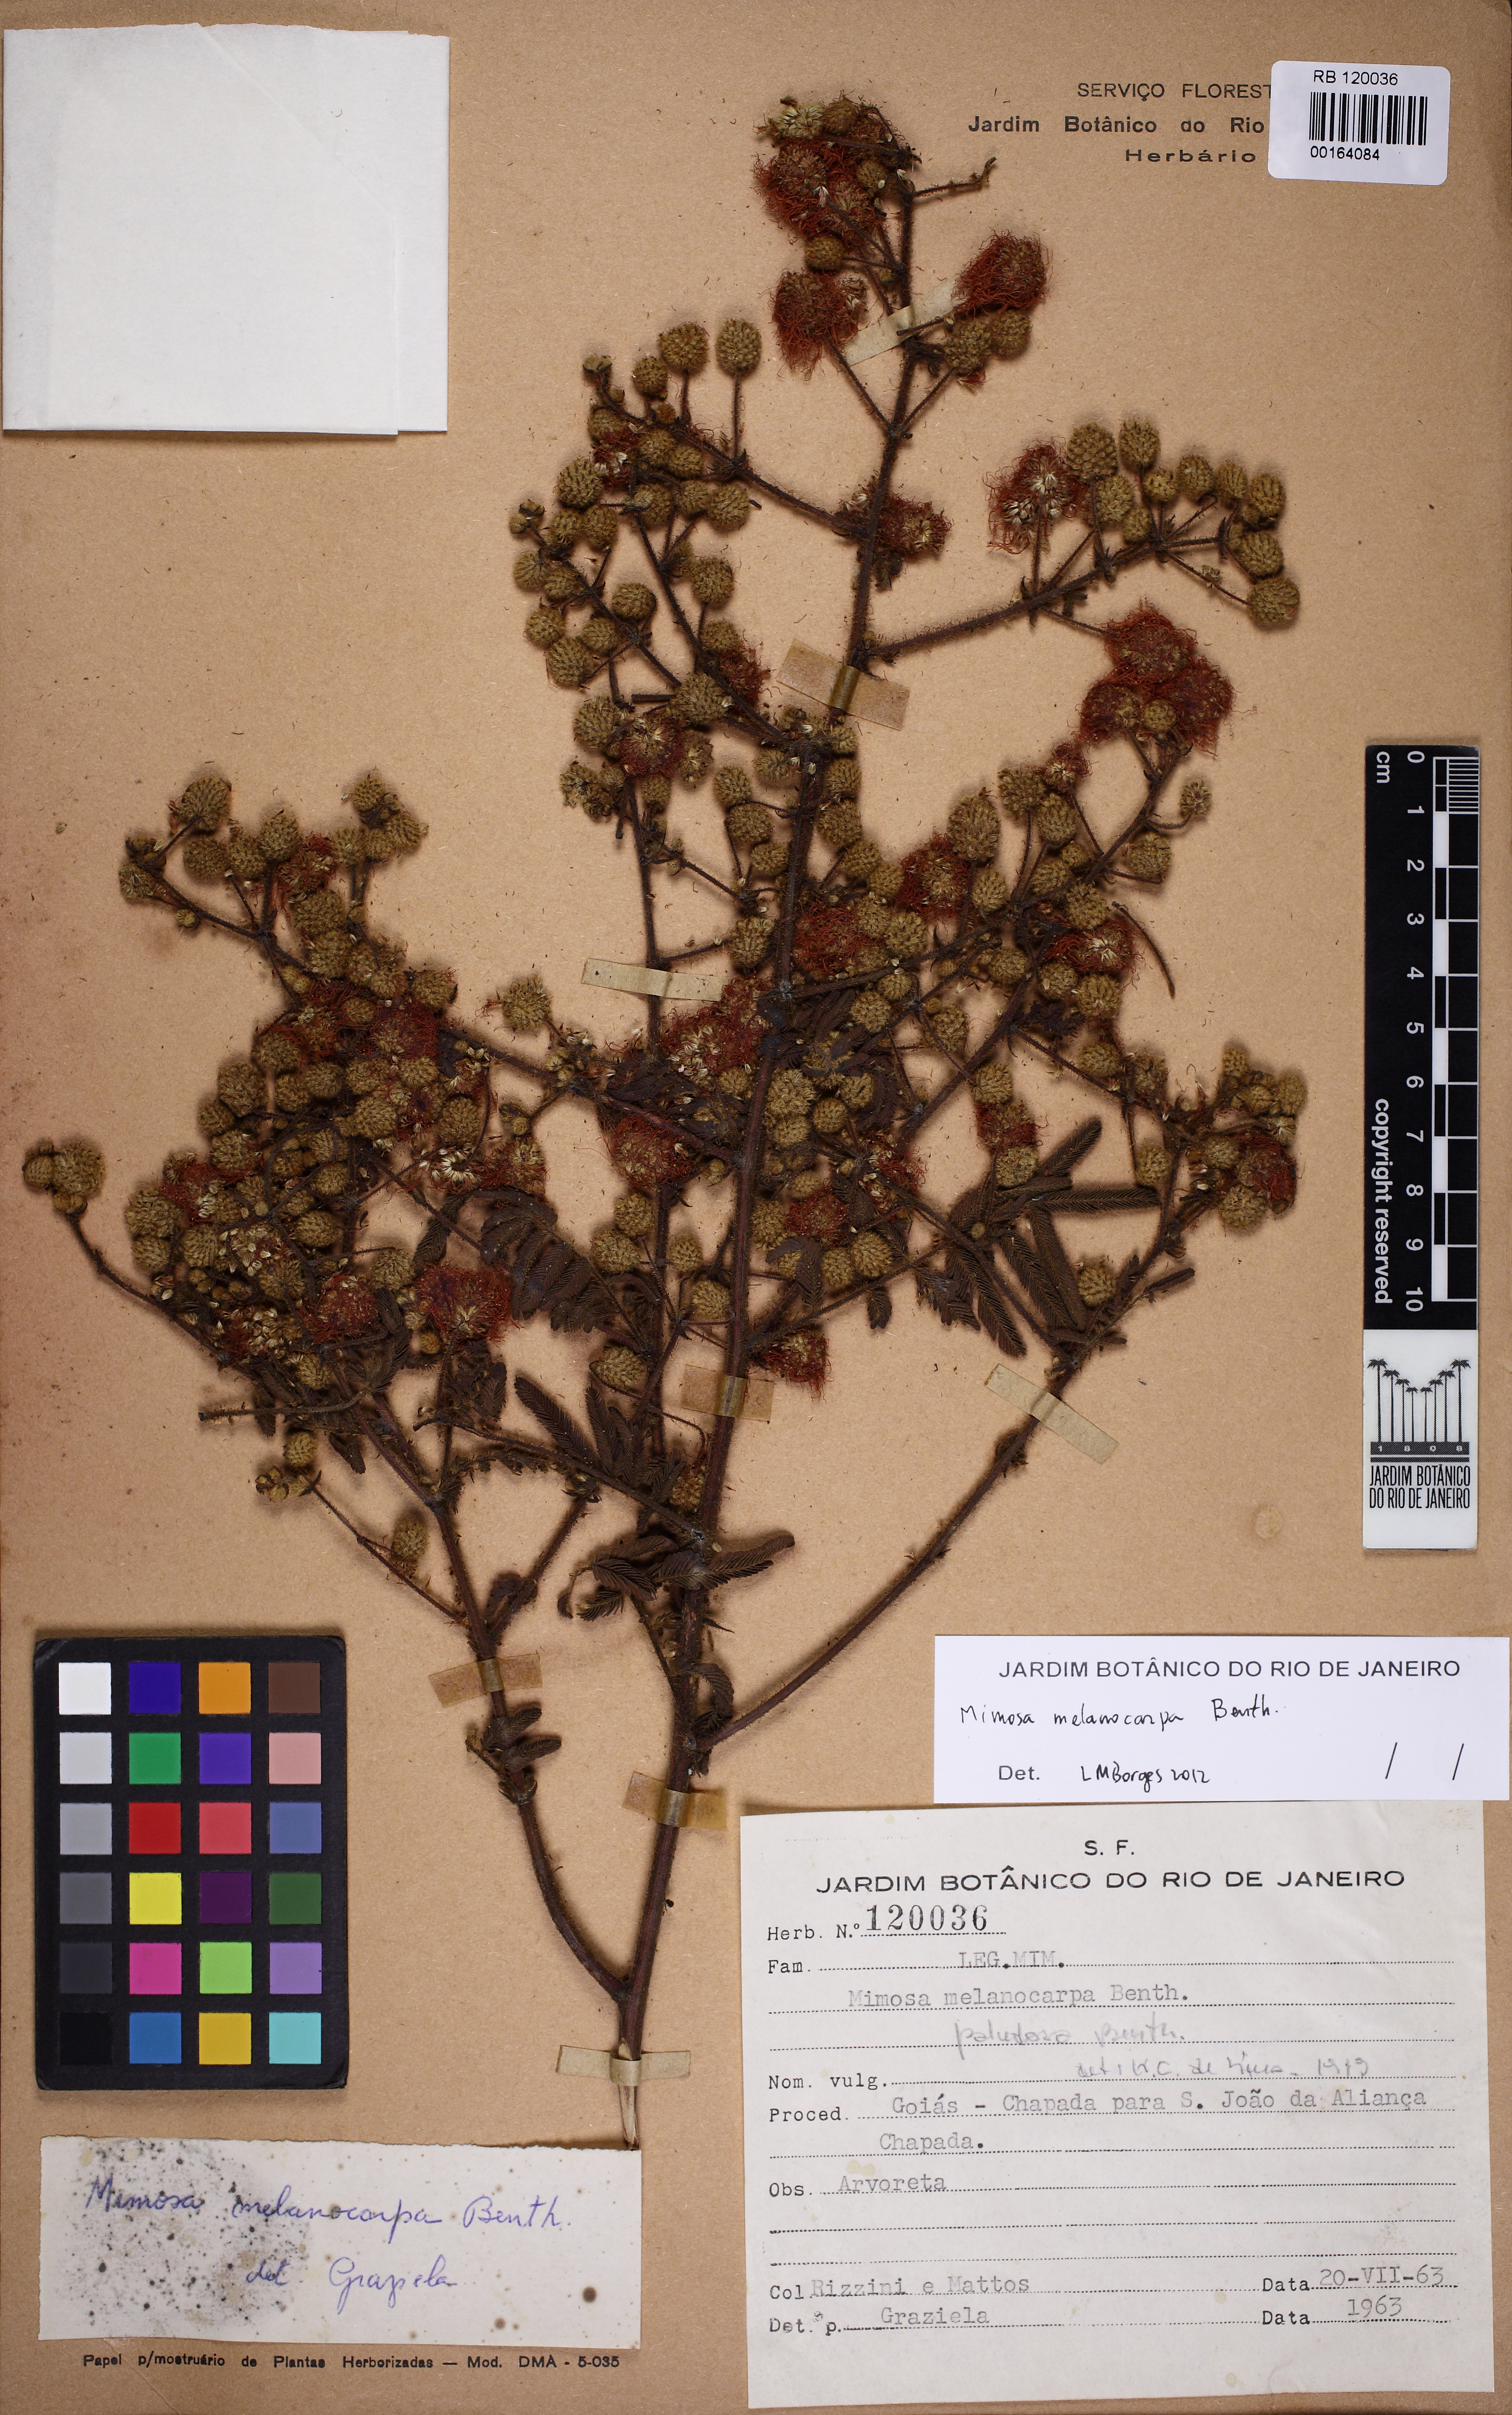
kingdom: Plantae
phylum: Tracheophyta
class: Magnoliopsida
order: Fabales
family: Fabaceae
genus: Mimosa
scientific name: Mimosa melanocarpa
